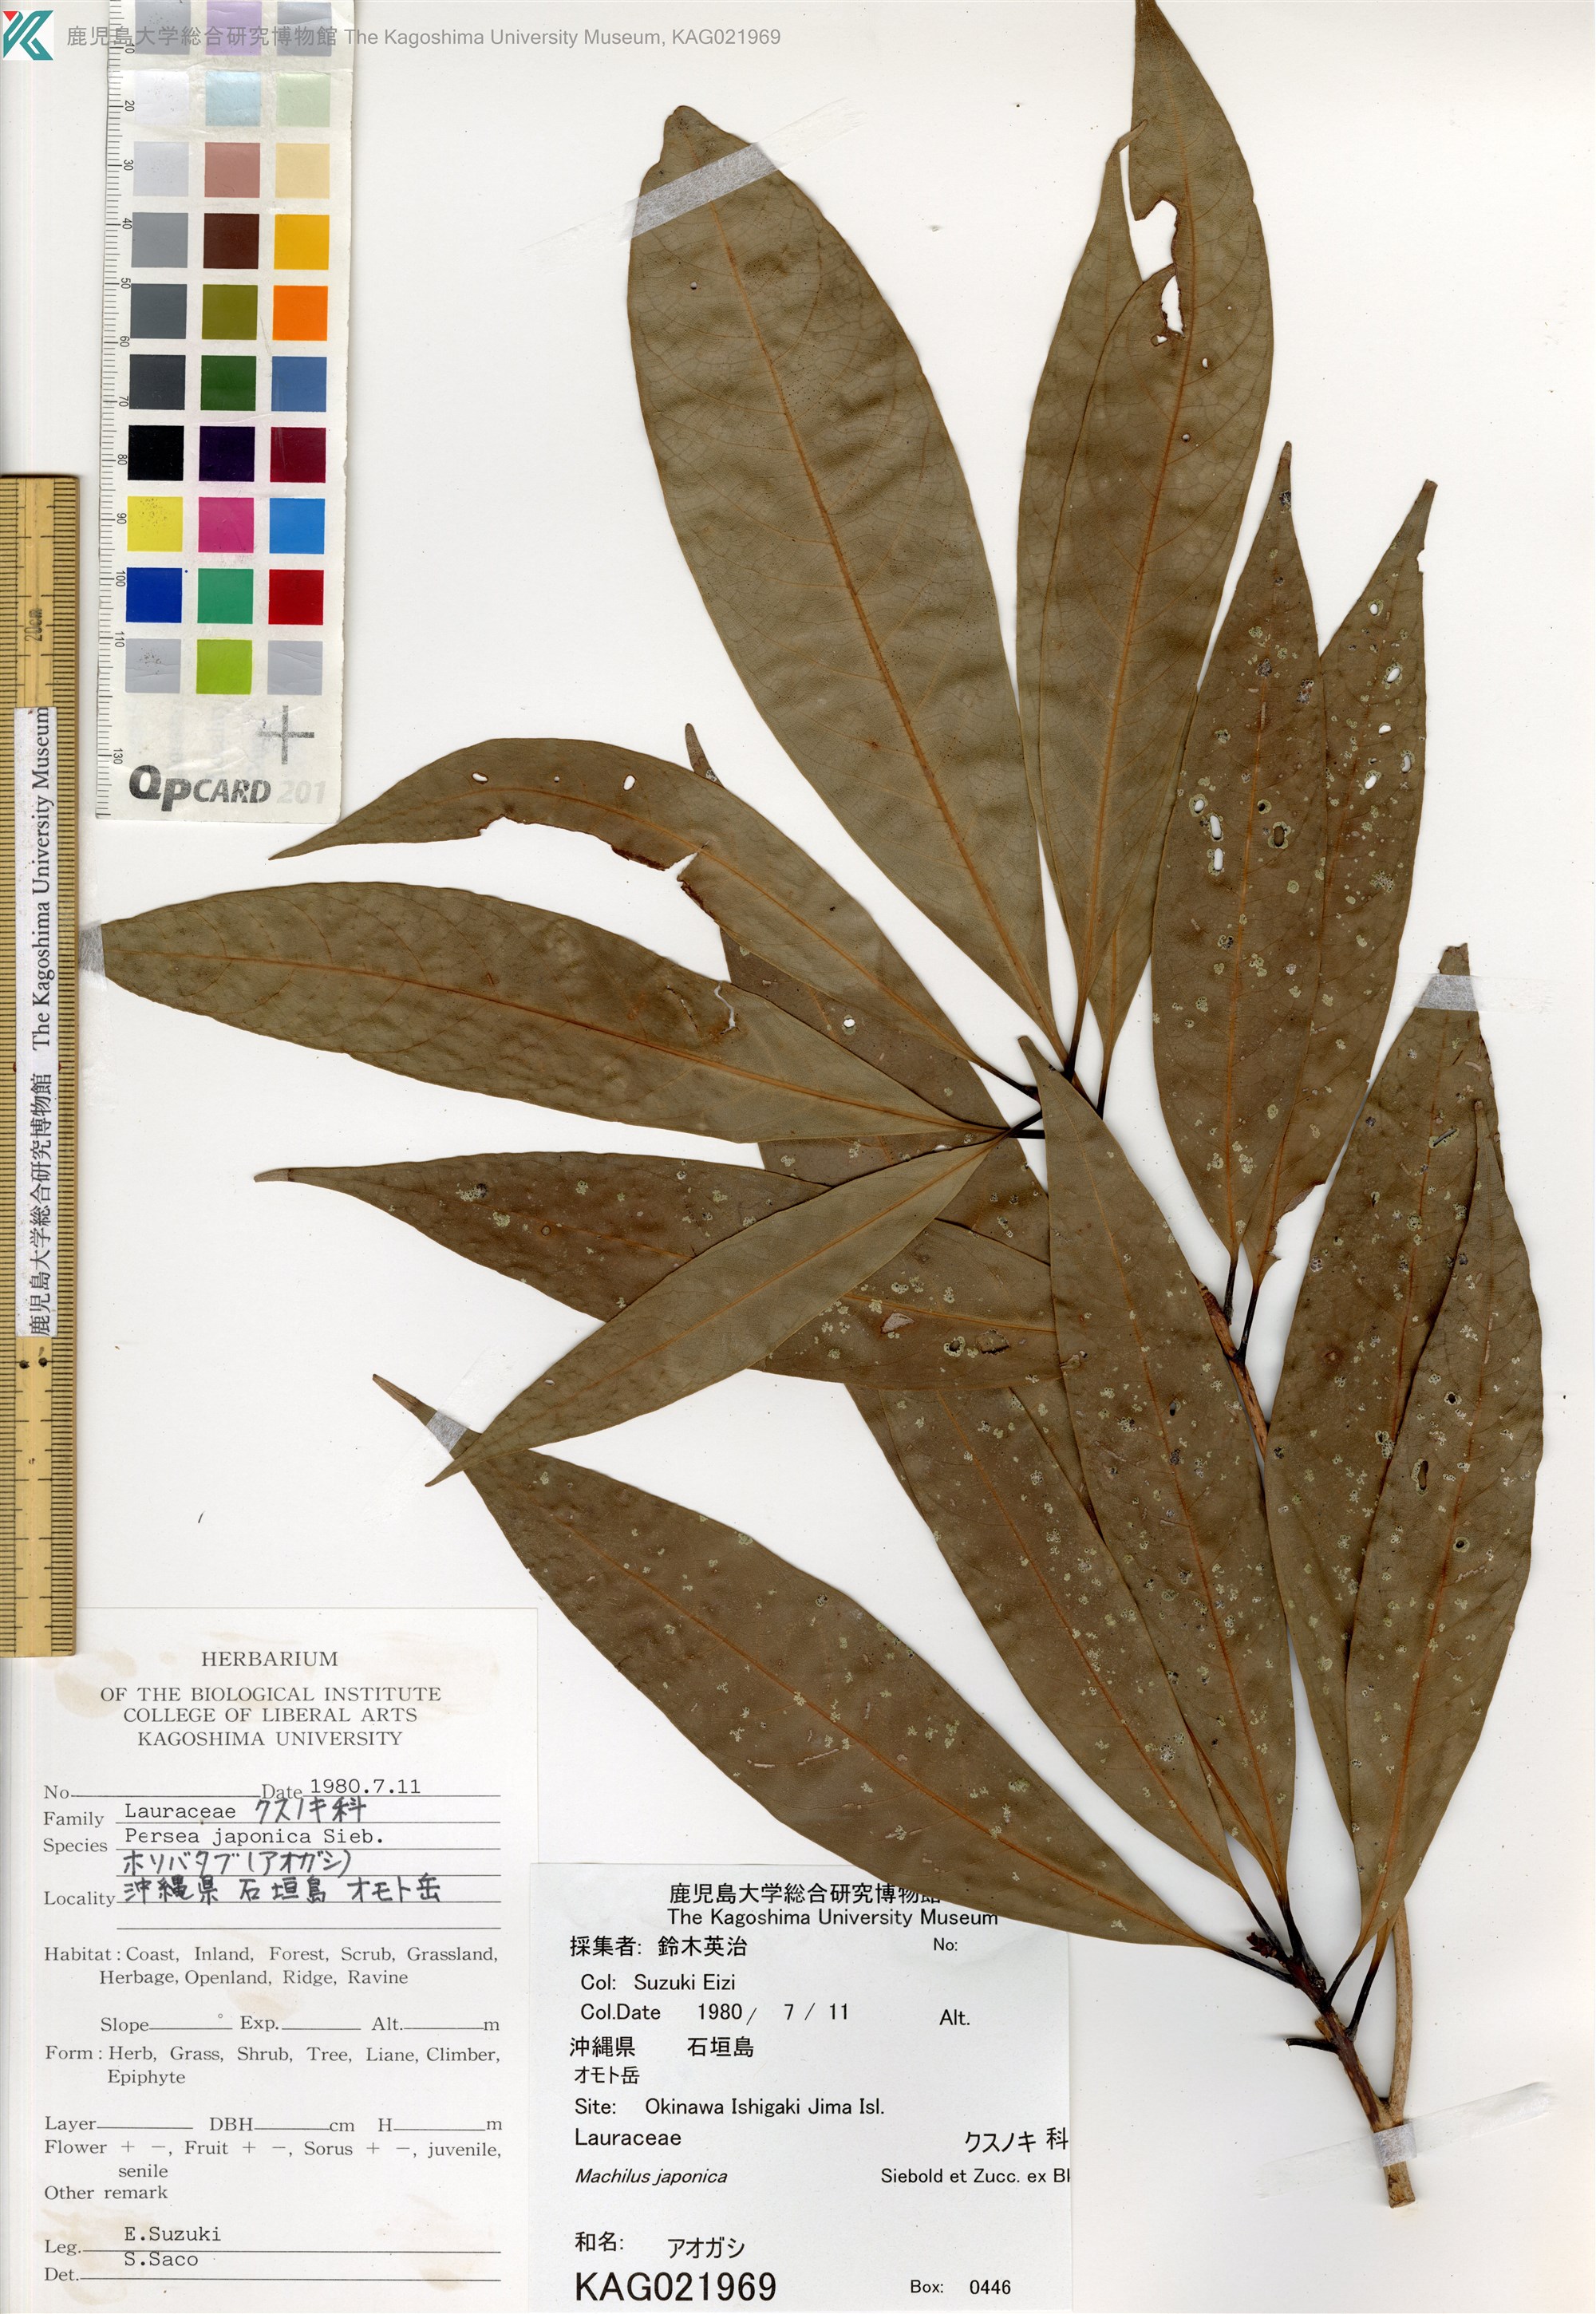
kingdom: Plantae
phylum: Tracheophyta
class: Magnoliopsida
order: Laurales
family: Lauraceae
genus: Machilus
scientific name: Machilus japonica
